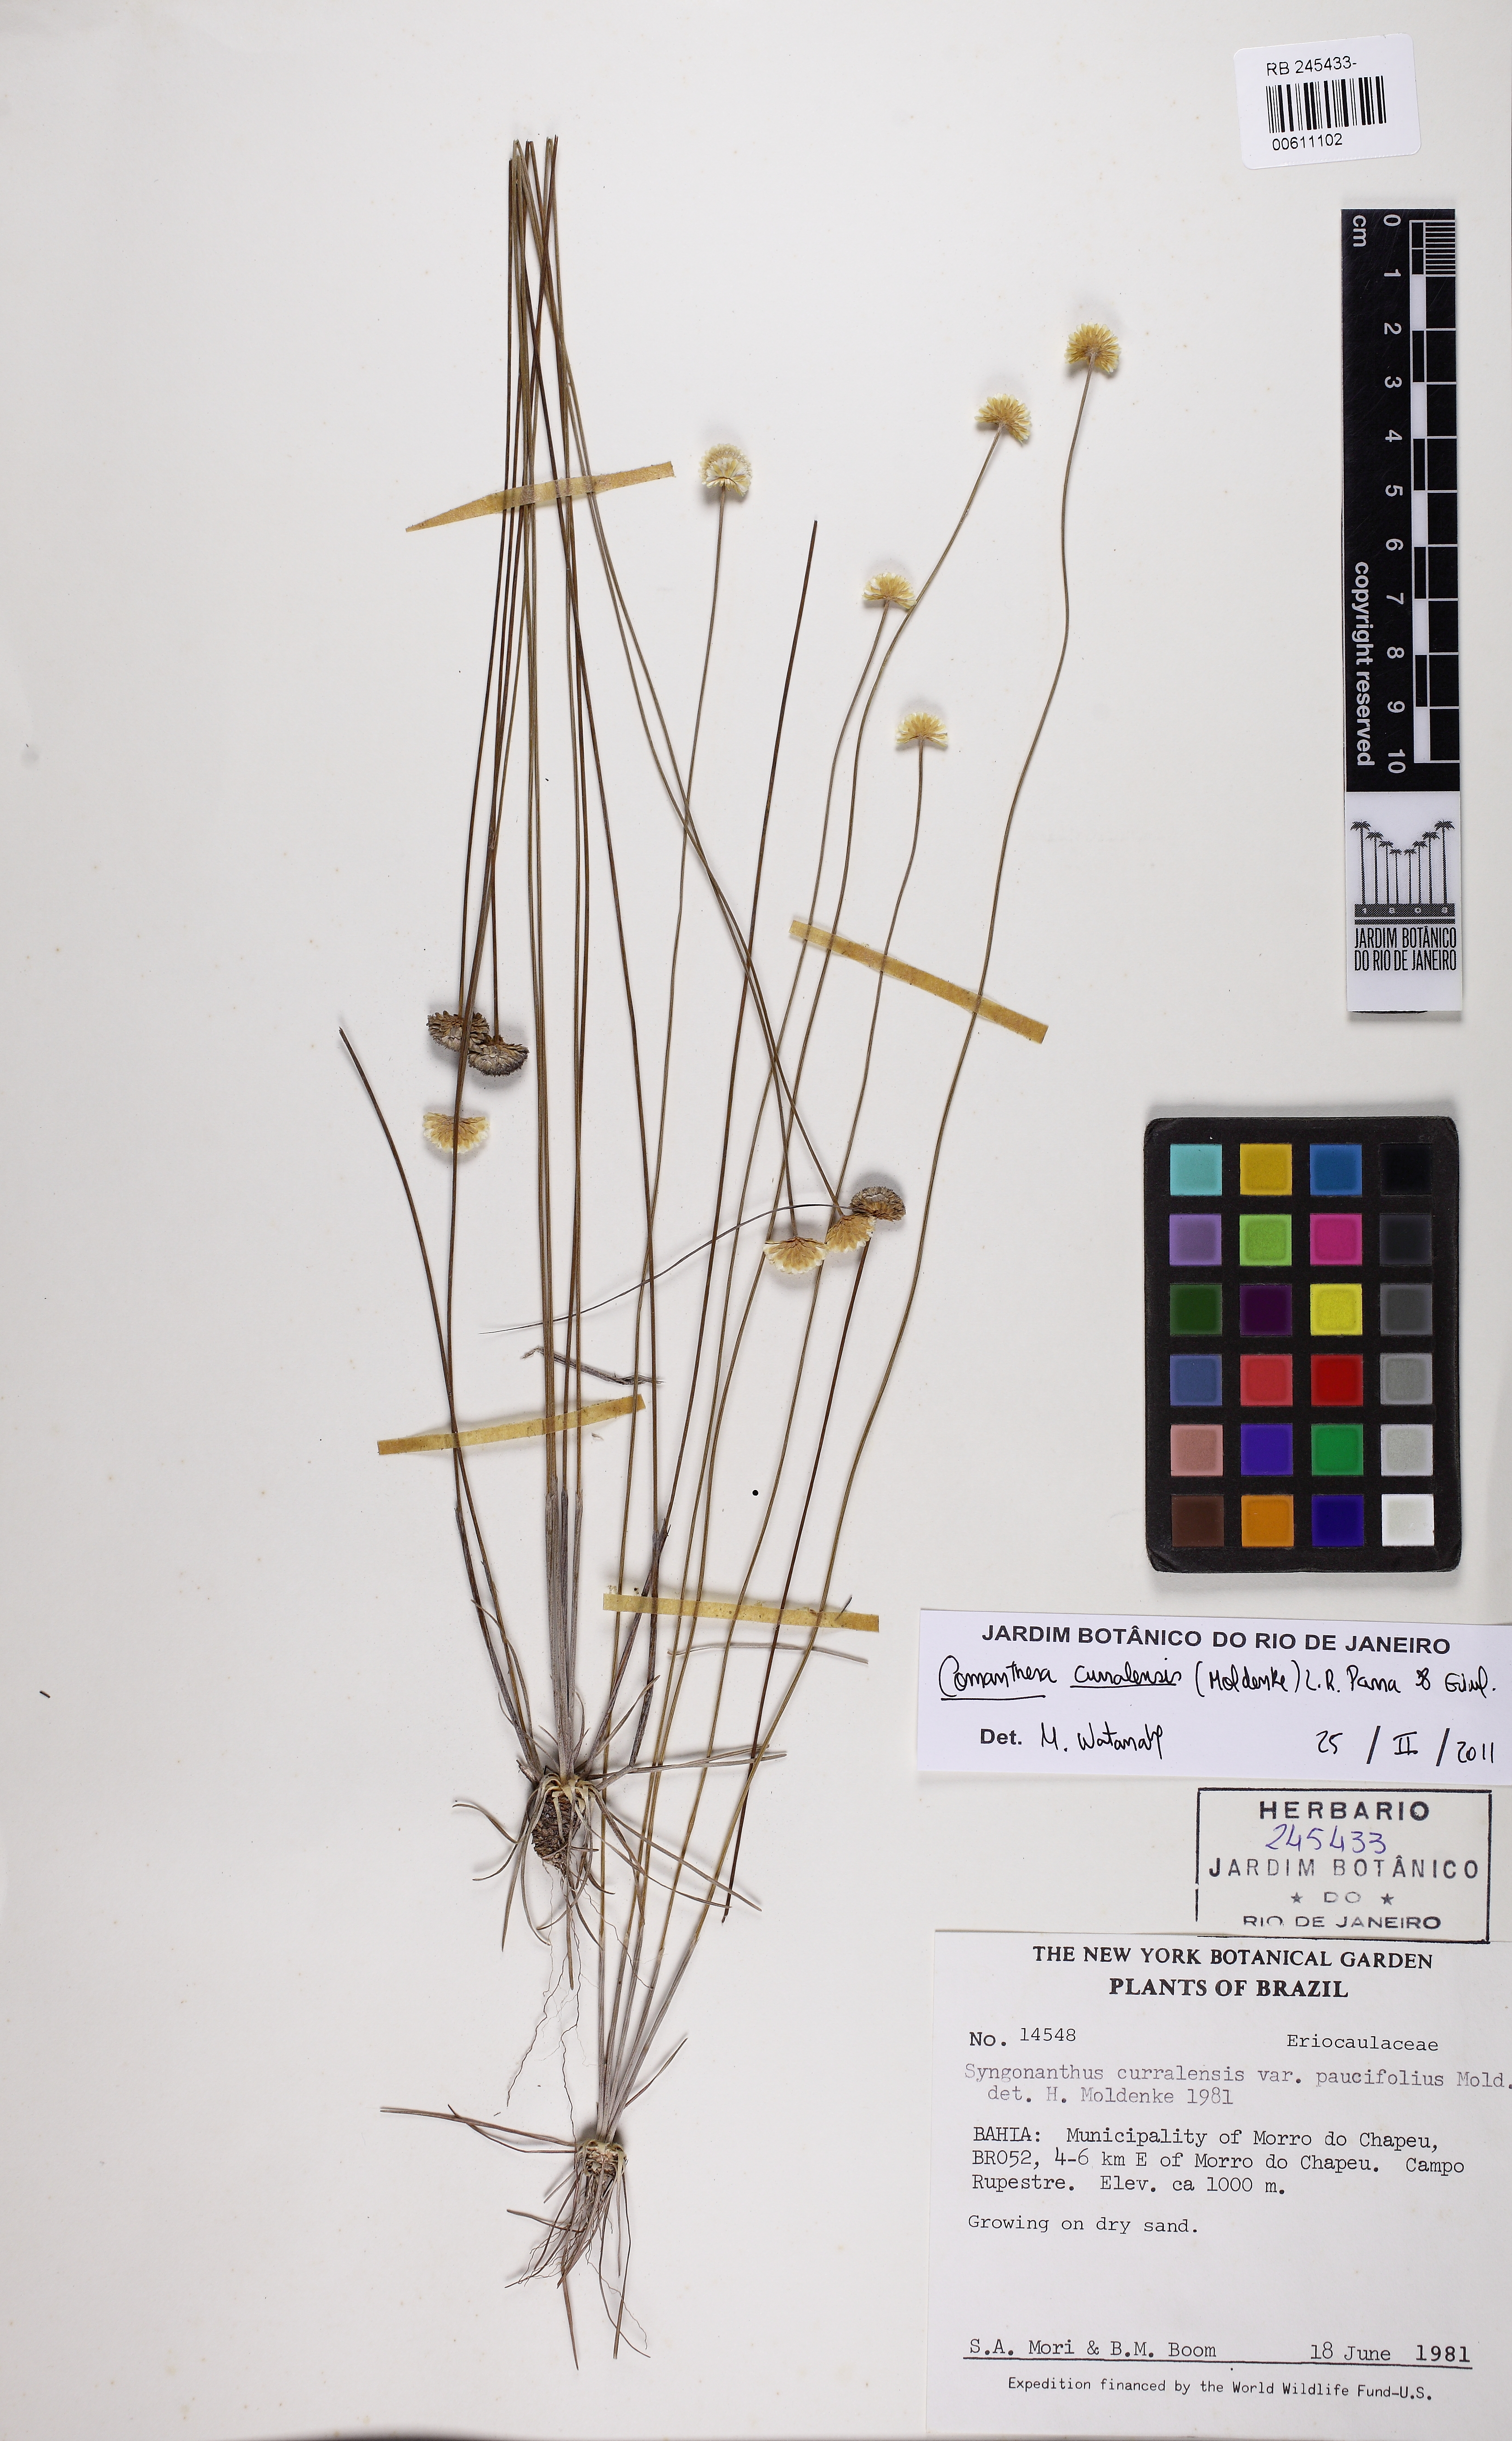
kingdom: Plantae
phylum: Tracheophyta
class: Liliopsida
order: Poales
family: Eriocaulaceae
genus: Comanthera
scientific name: Comanthera curralensis
